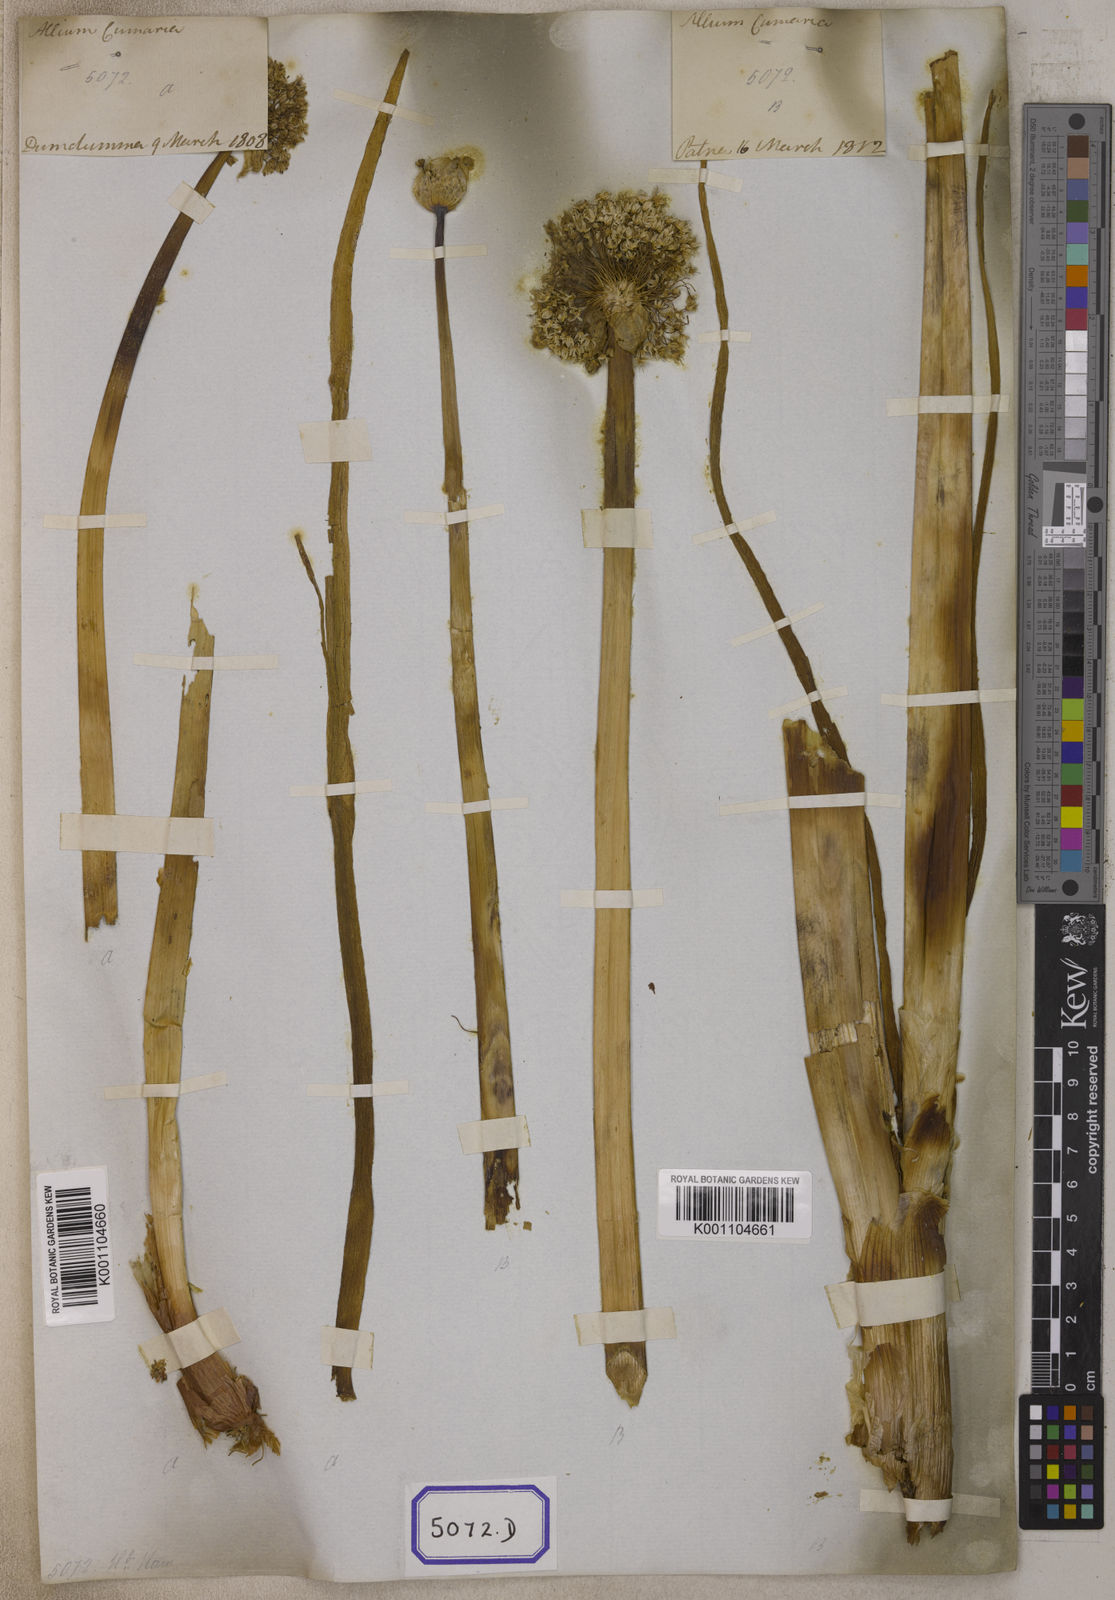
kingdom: Plantae
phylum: Tracheophyta
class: Liliopsida
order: Asparagales
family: Amaryllidaceae
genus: Allium
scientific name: Allium cepa
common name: Onion
